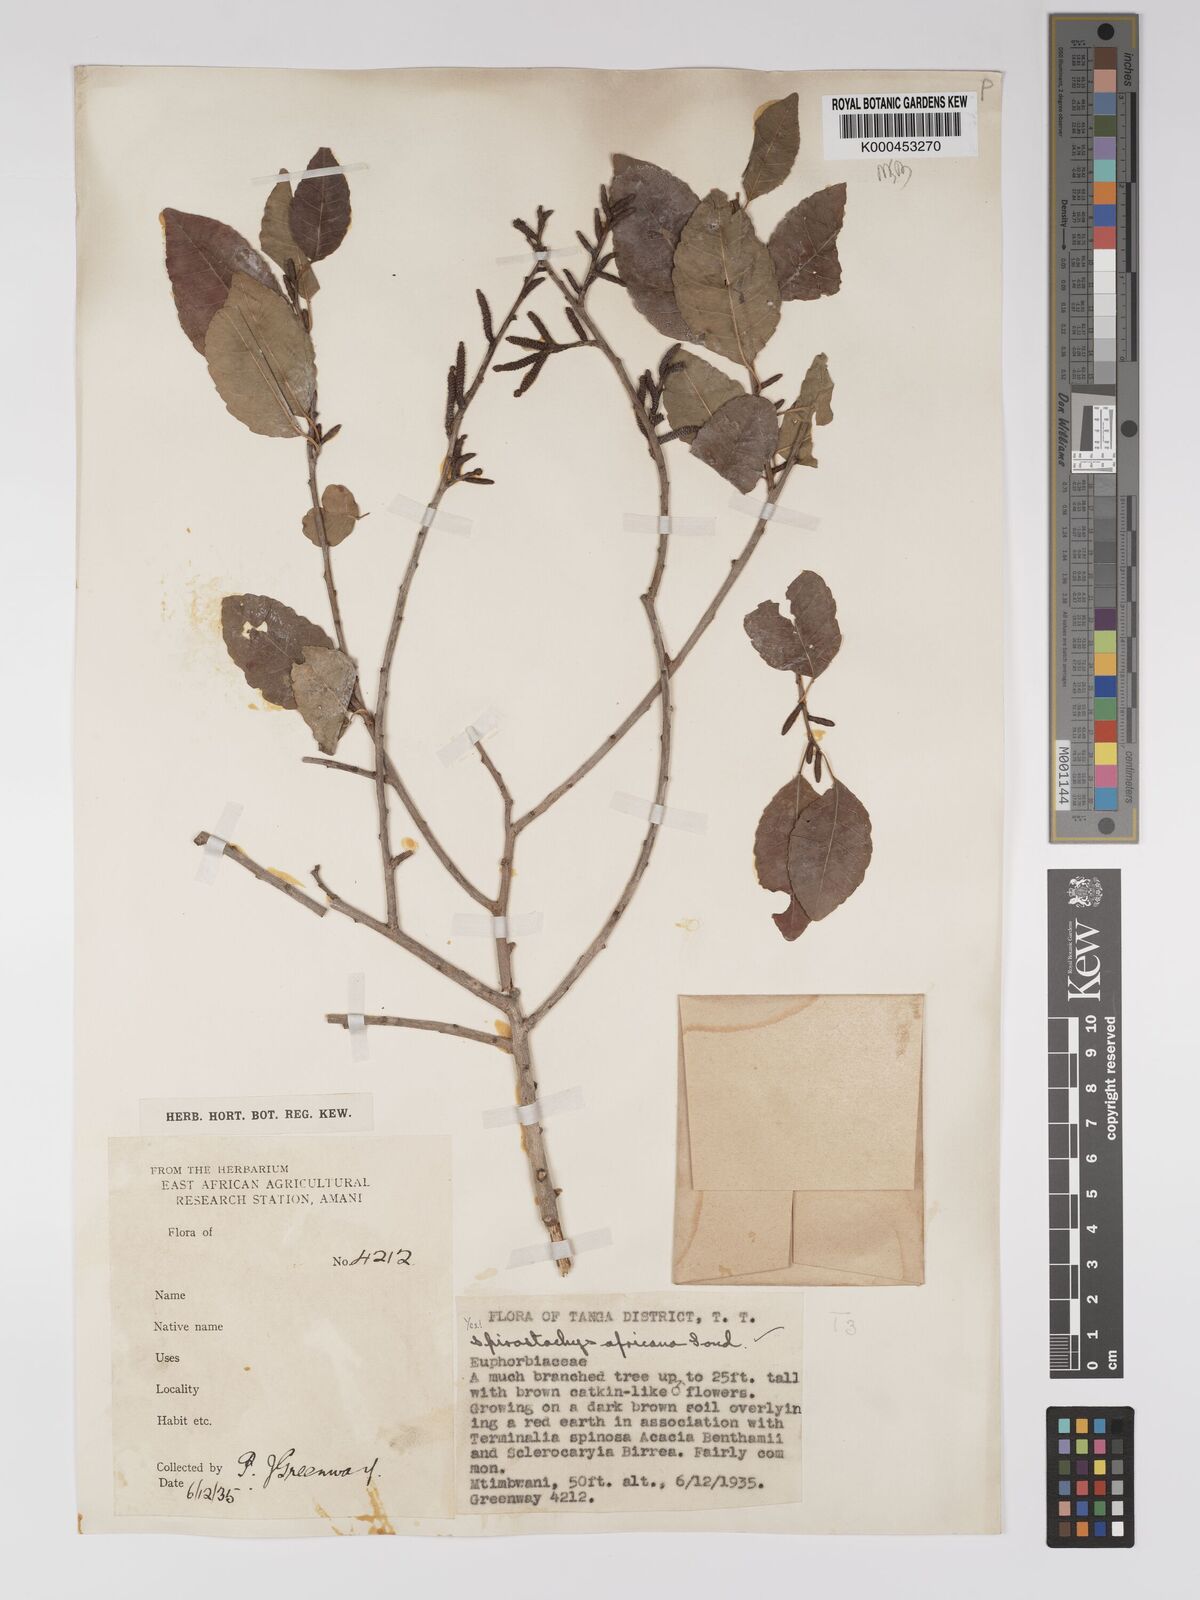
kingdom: Plantae
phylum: Tracheophyta
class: Magnoliopsida
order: Malpighiales
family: Euphorbiaceae
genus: Spirostachys
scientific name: Spirostachys africana
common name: Tamboti
